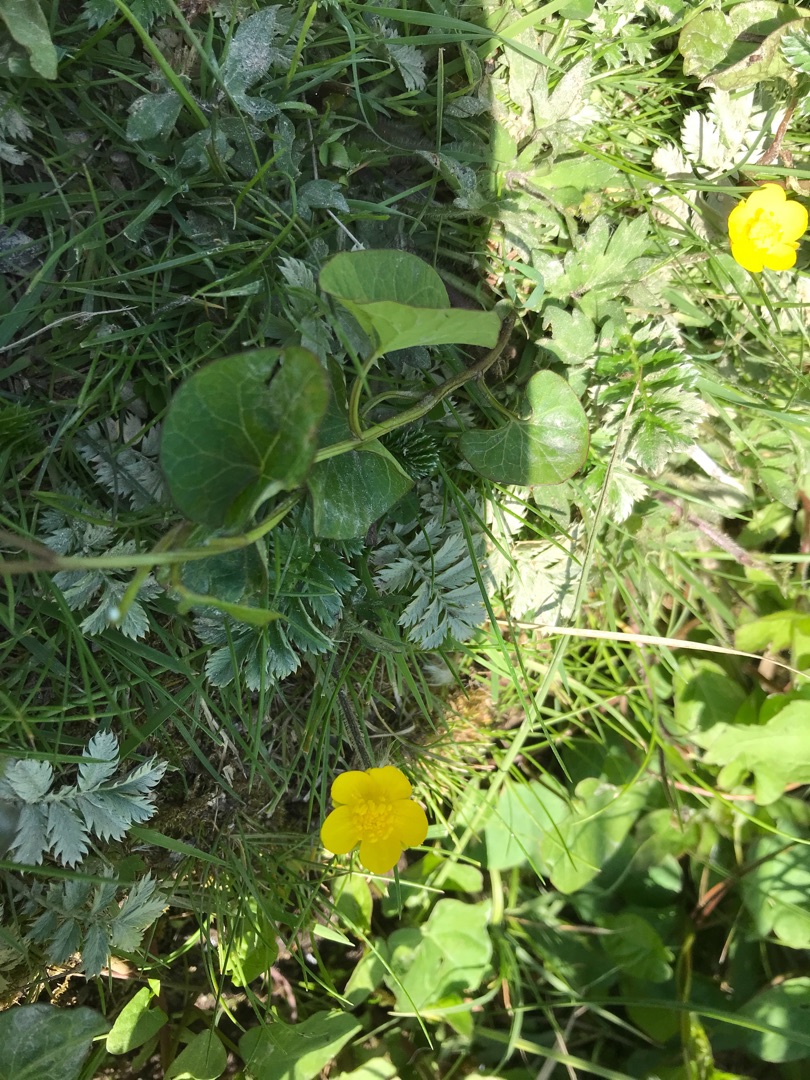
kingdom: Plantae
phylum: Tracheophyta
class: Magnoliopsida
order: Rosales
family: Rosaceae
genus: Argentina
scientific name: Argentina anserina
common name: Gåsepotentil
